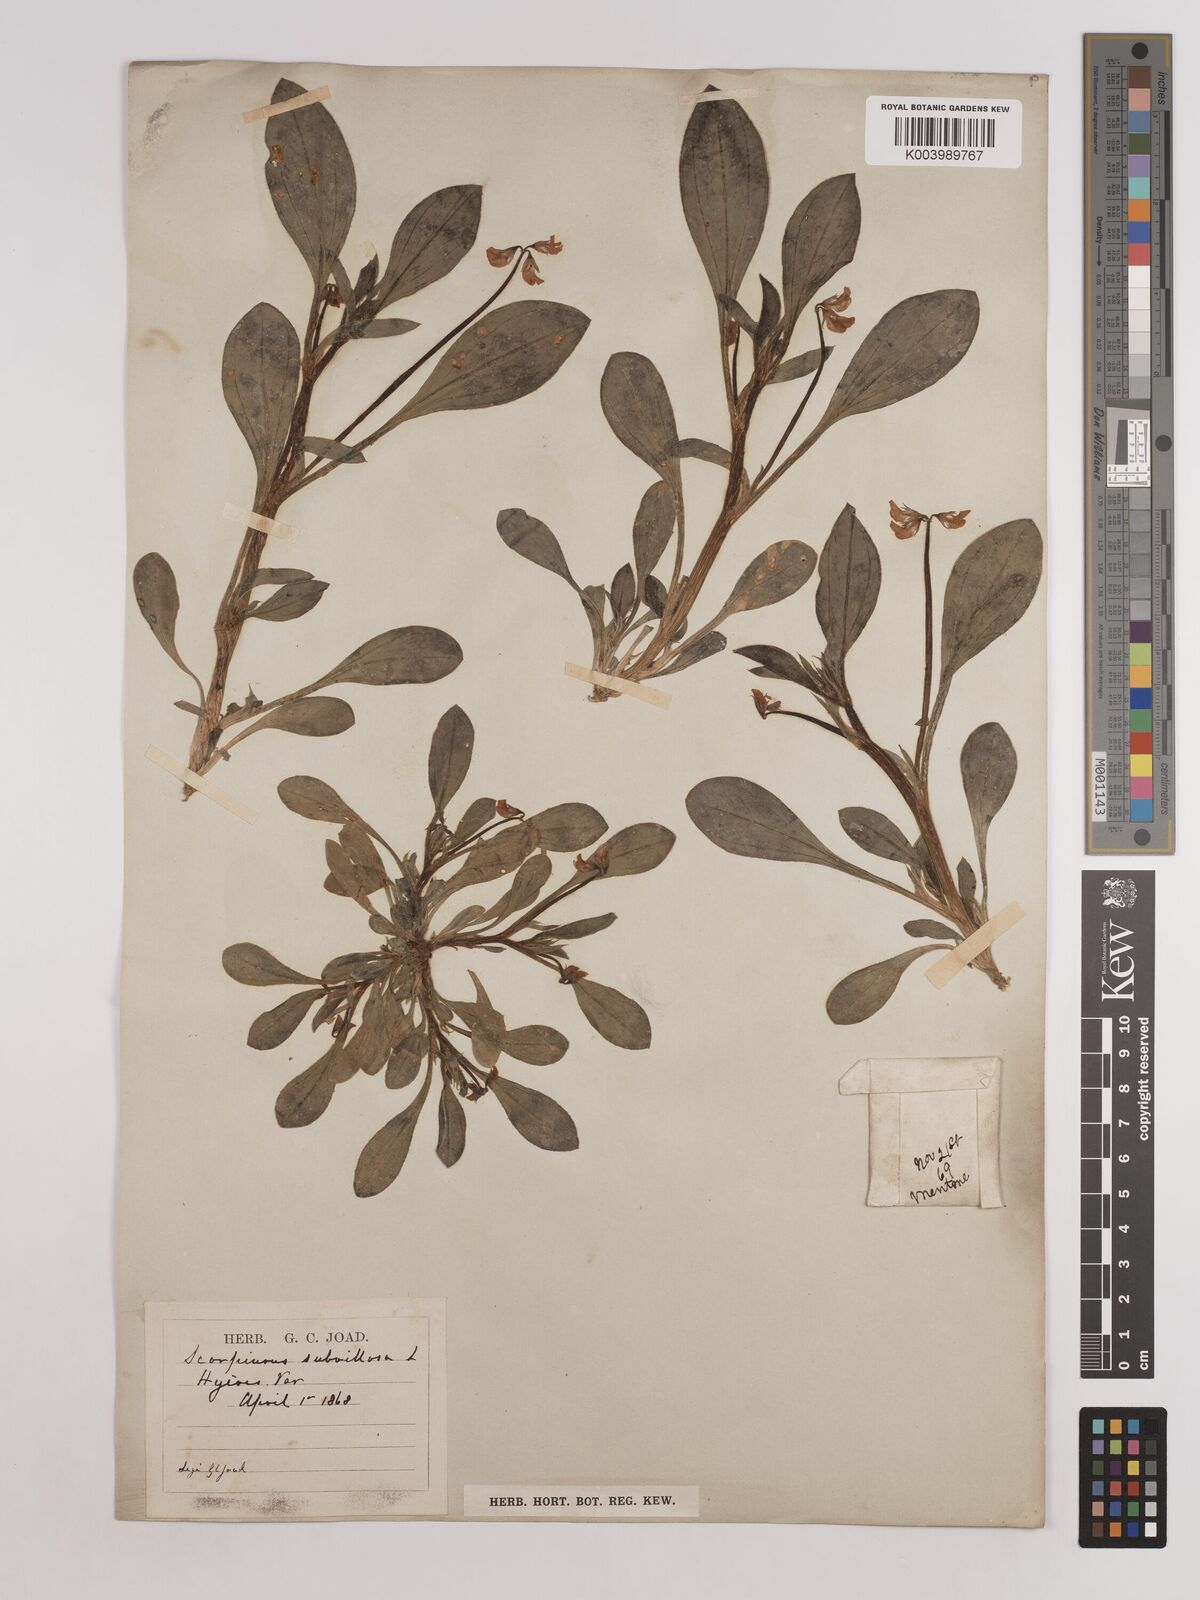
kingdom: Plantae
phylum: Tracheophyta
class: Magnoliopsida
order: Fabales
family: Fabaceae
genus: Scorpiurus
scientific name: Scorpiurus muricatus
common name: Caterpillar-plant
